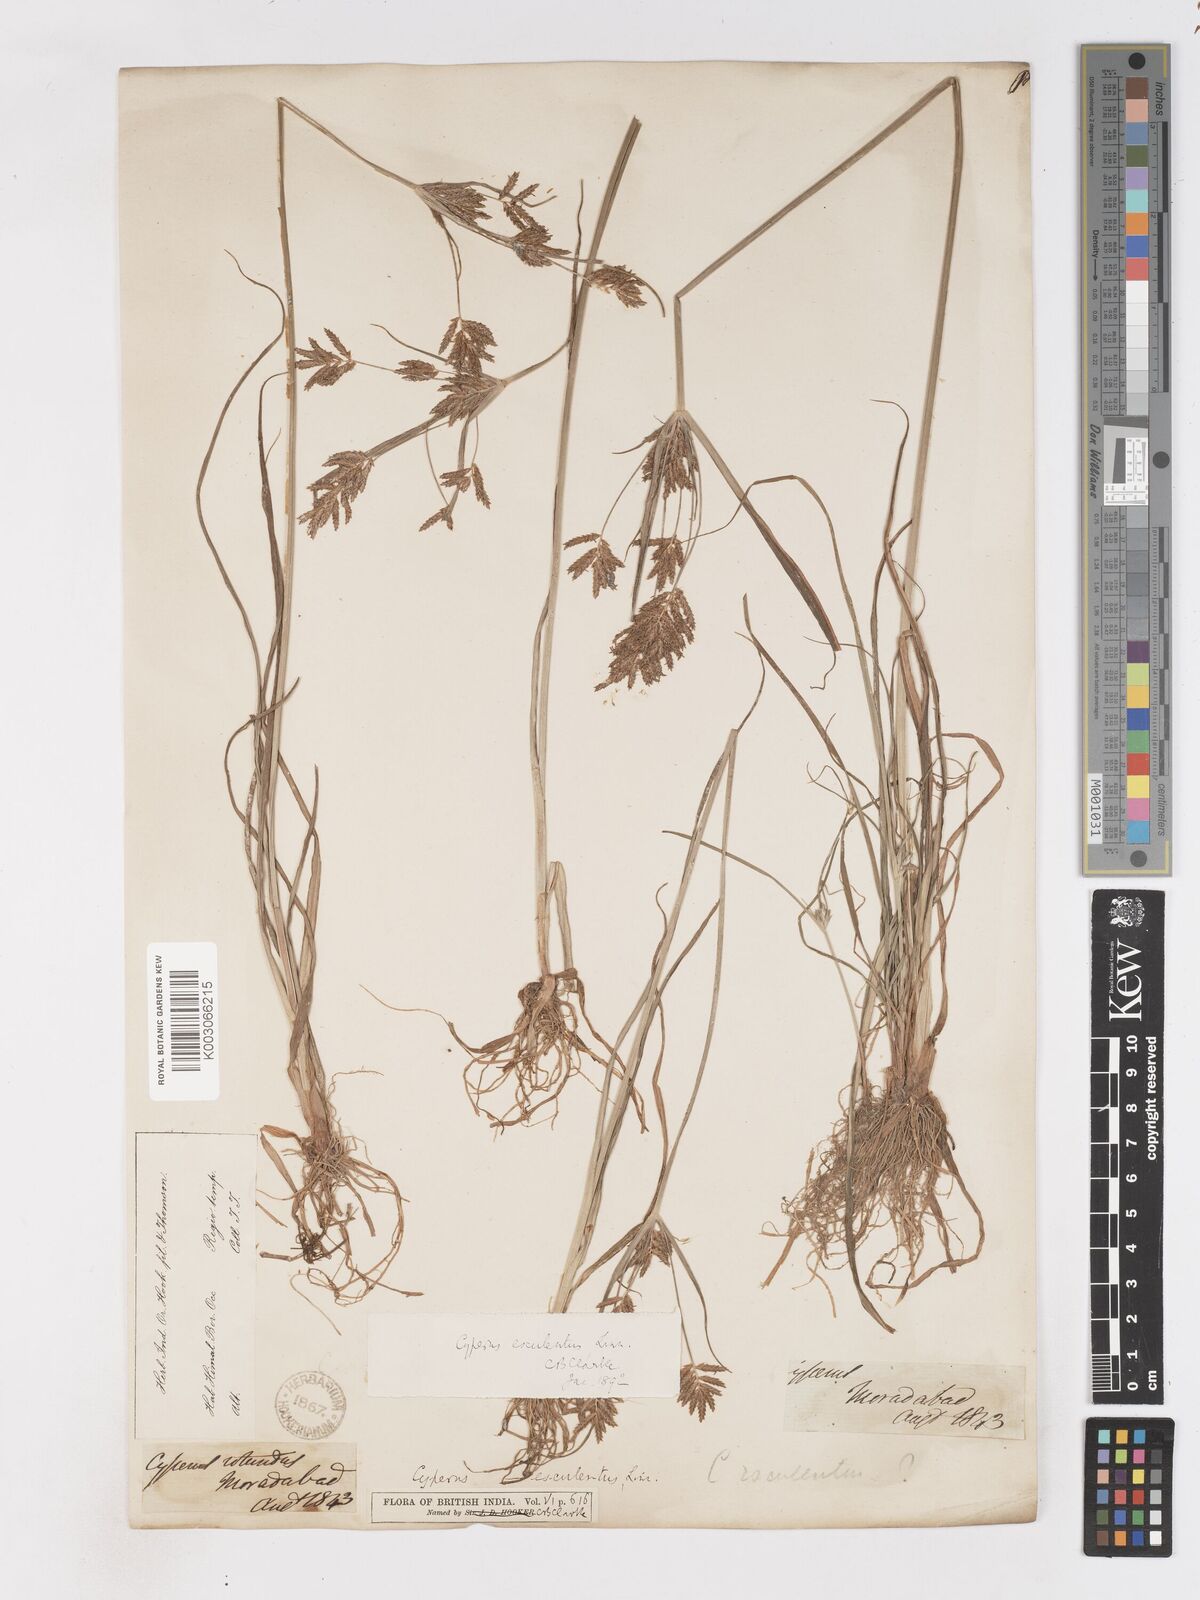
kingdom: Plantae
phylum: Tracheophyta
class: Liliopsida
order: Poales
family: Cyperaceae
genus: Cyperus
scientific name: Cyperus esculentus
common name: Yellow nutsedge
